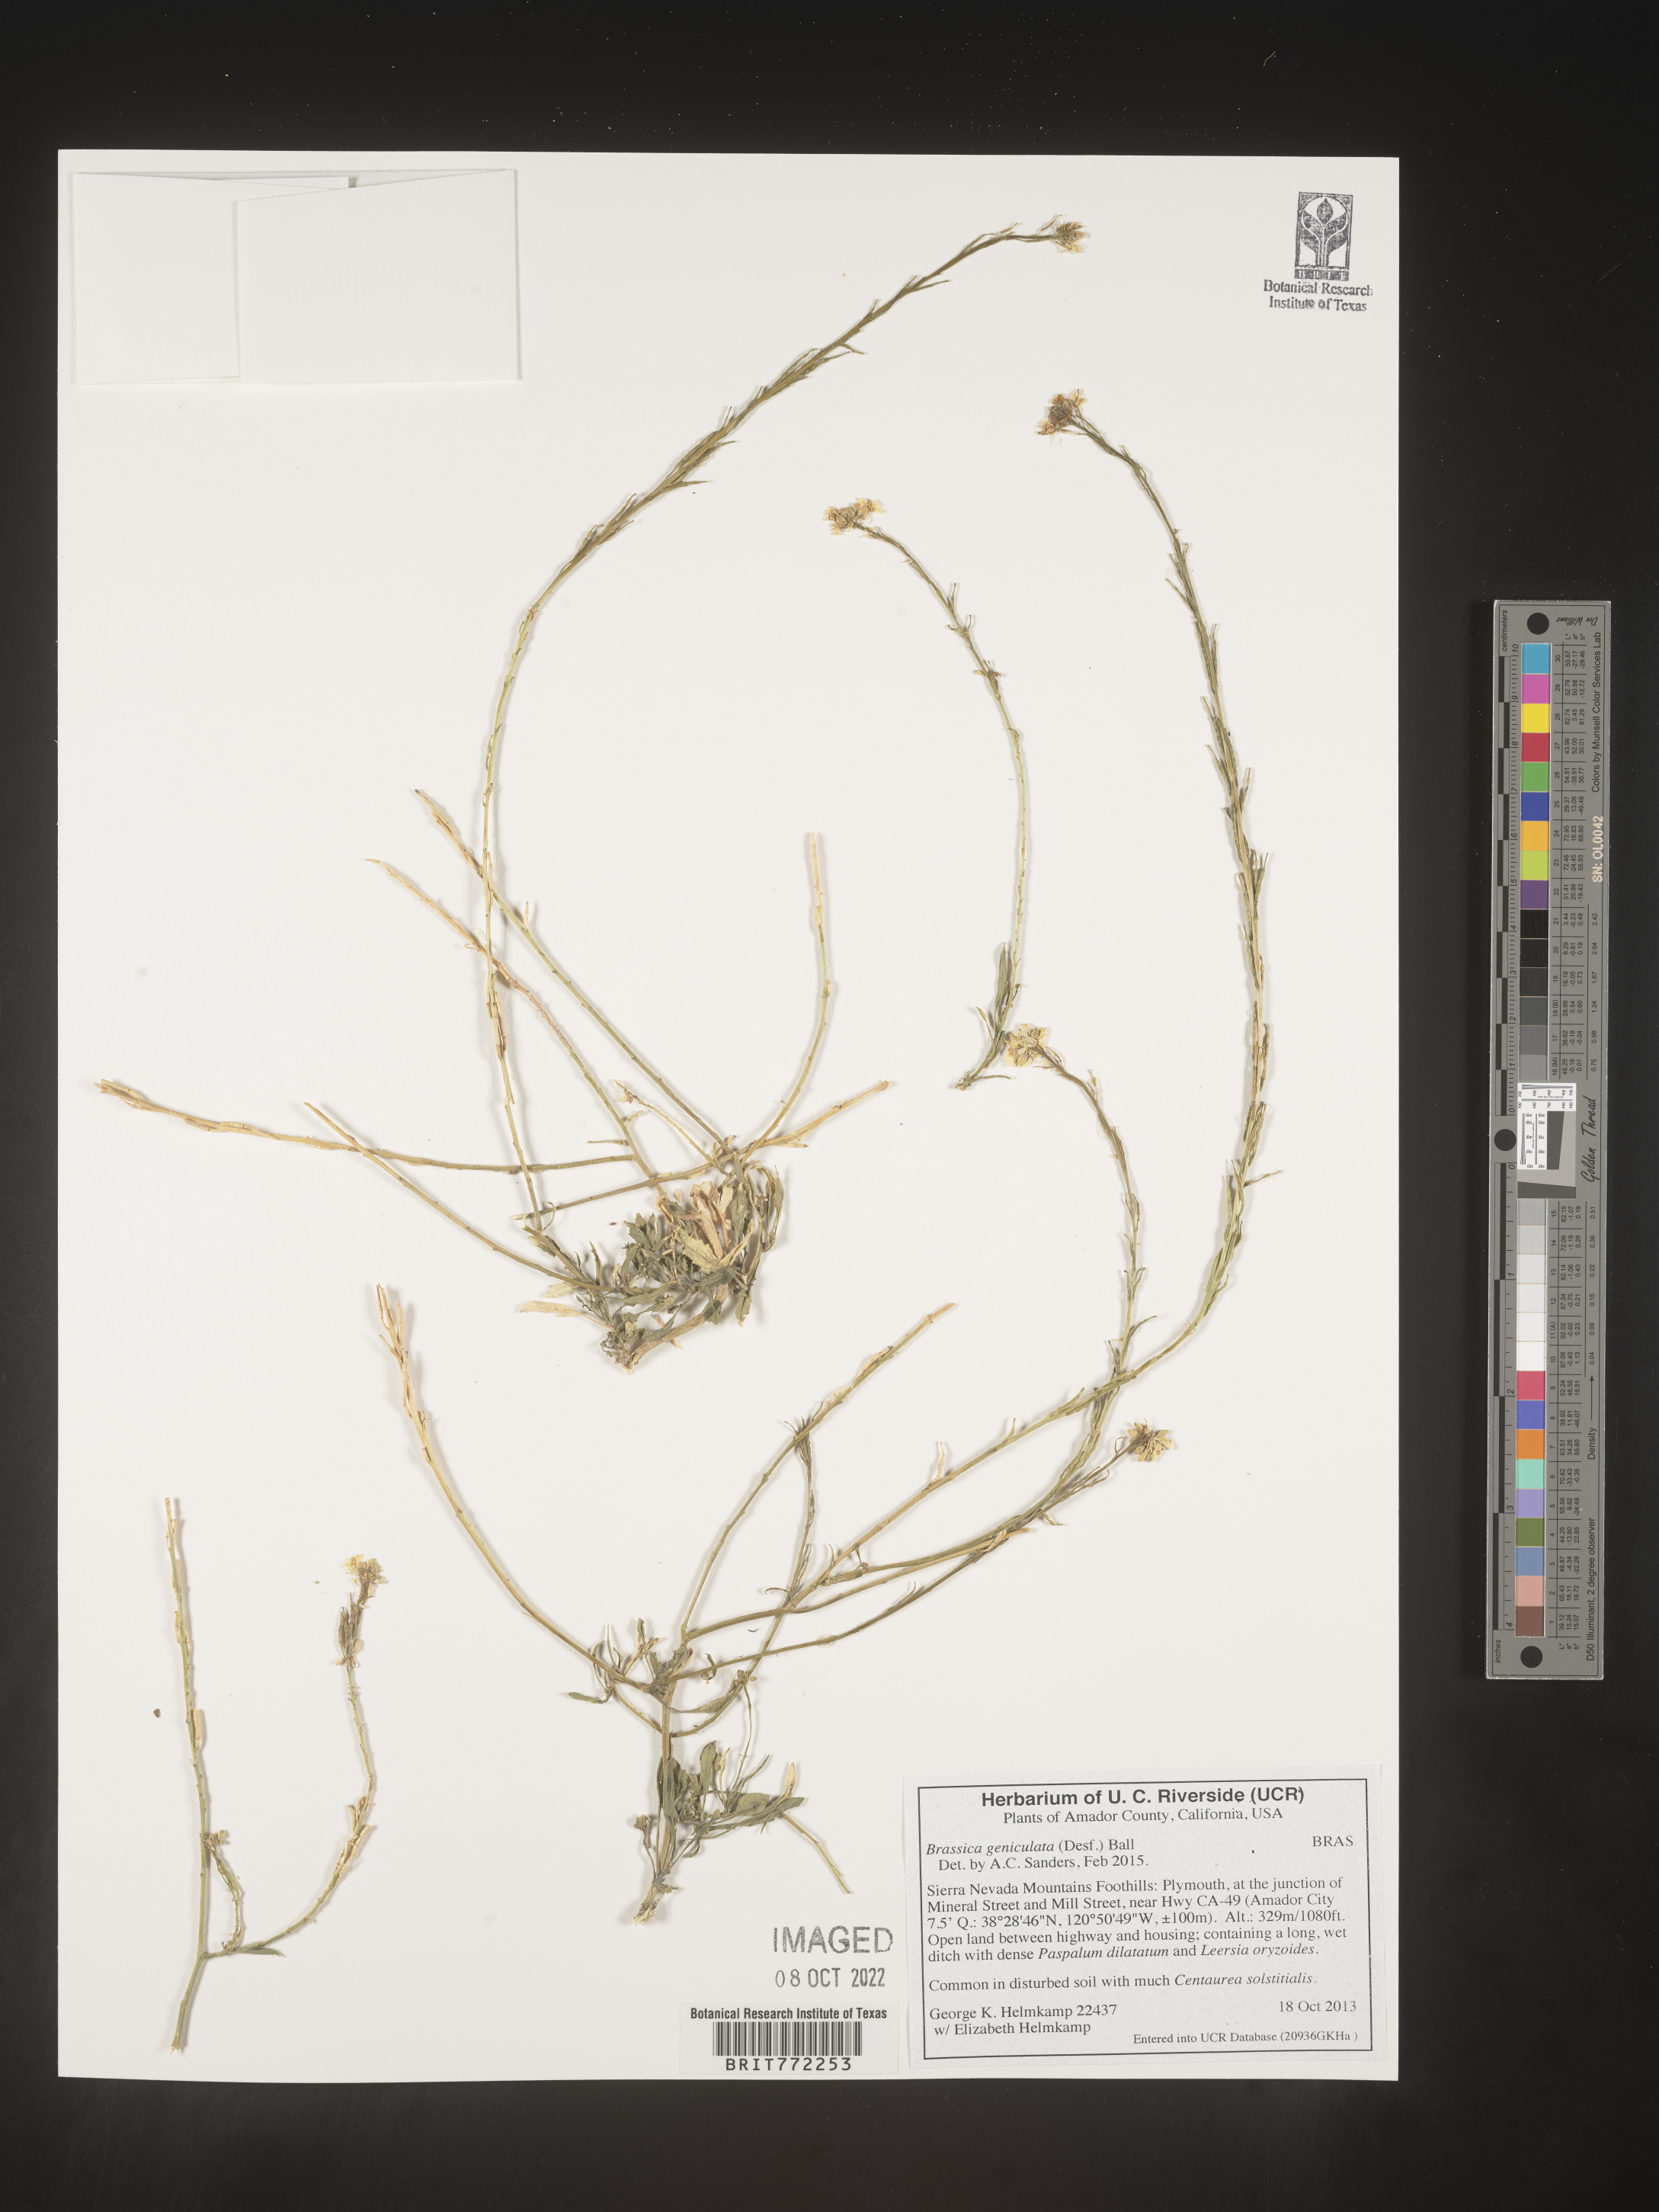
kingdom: Plantae
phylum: Tracheophyta
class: Magnoliopsida
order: Brassicales
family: Brassicaceae
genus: Hirschfeldia
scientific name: Hirschfeldia incana
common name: Hoary mustard
